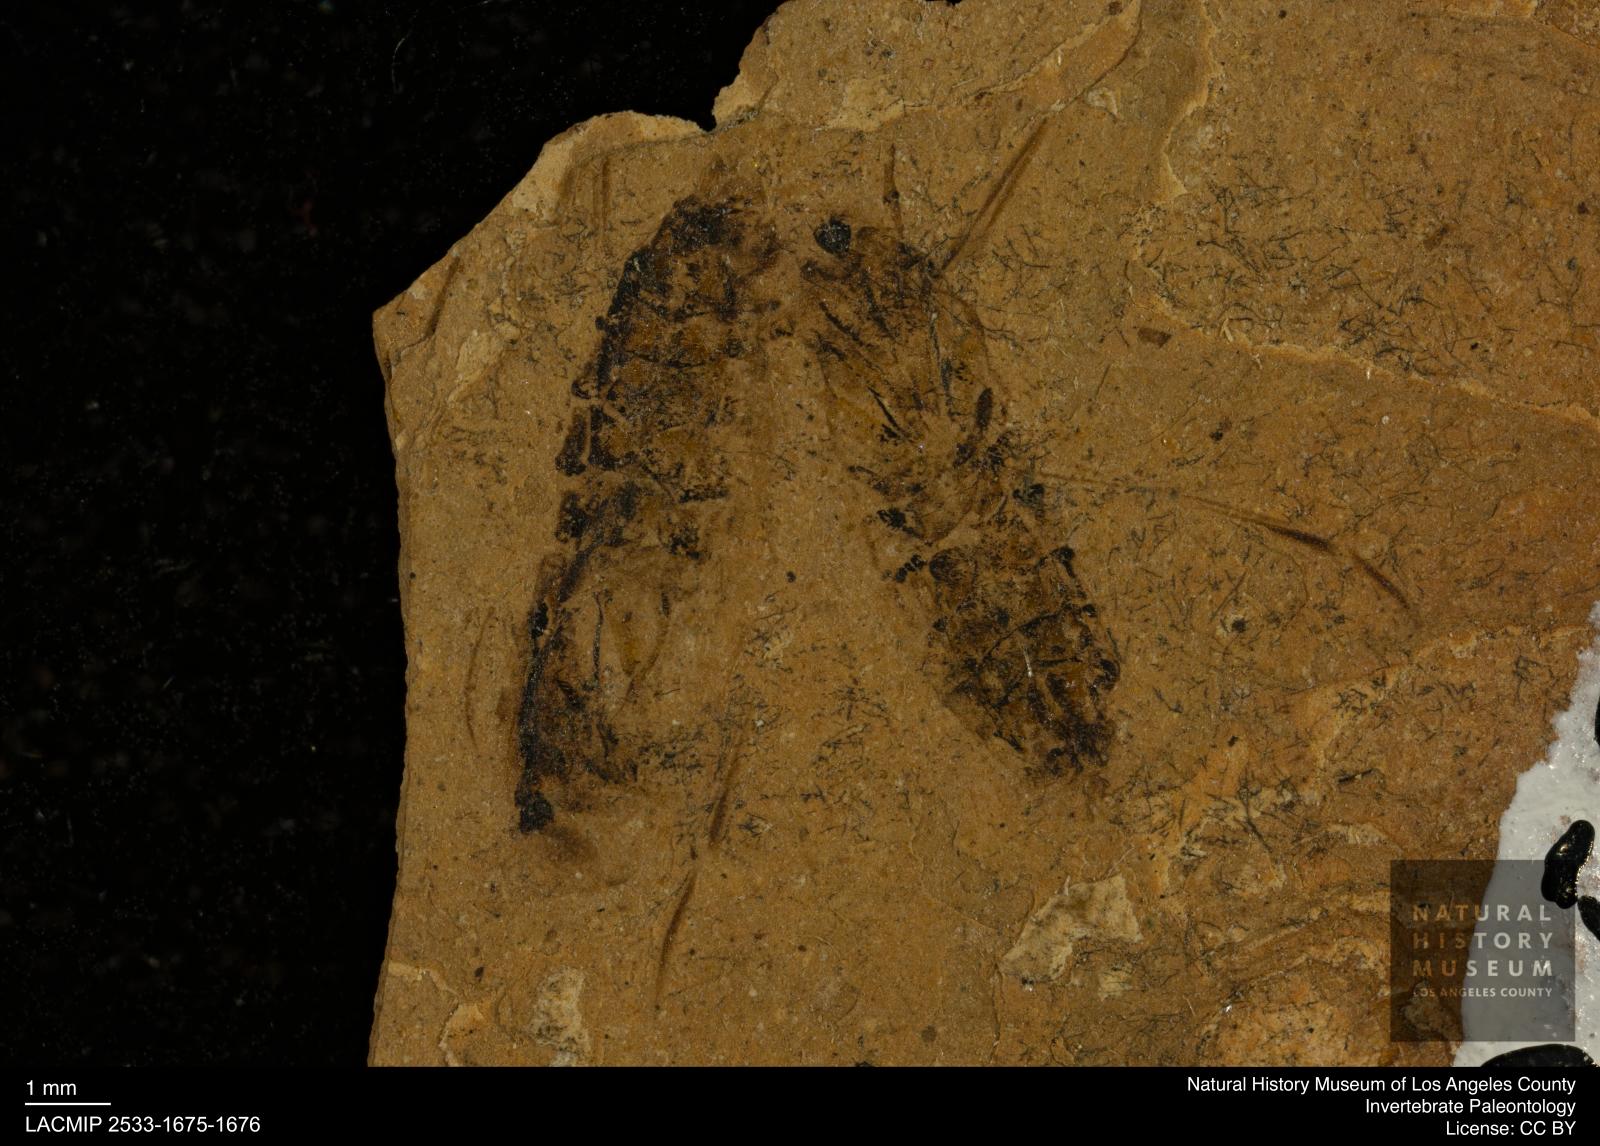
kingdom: Animalia
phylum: Arthropoda
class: Insecta
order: Hemiptera
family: Notonectidae
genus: Notonecta
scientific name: Notonecta
